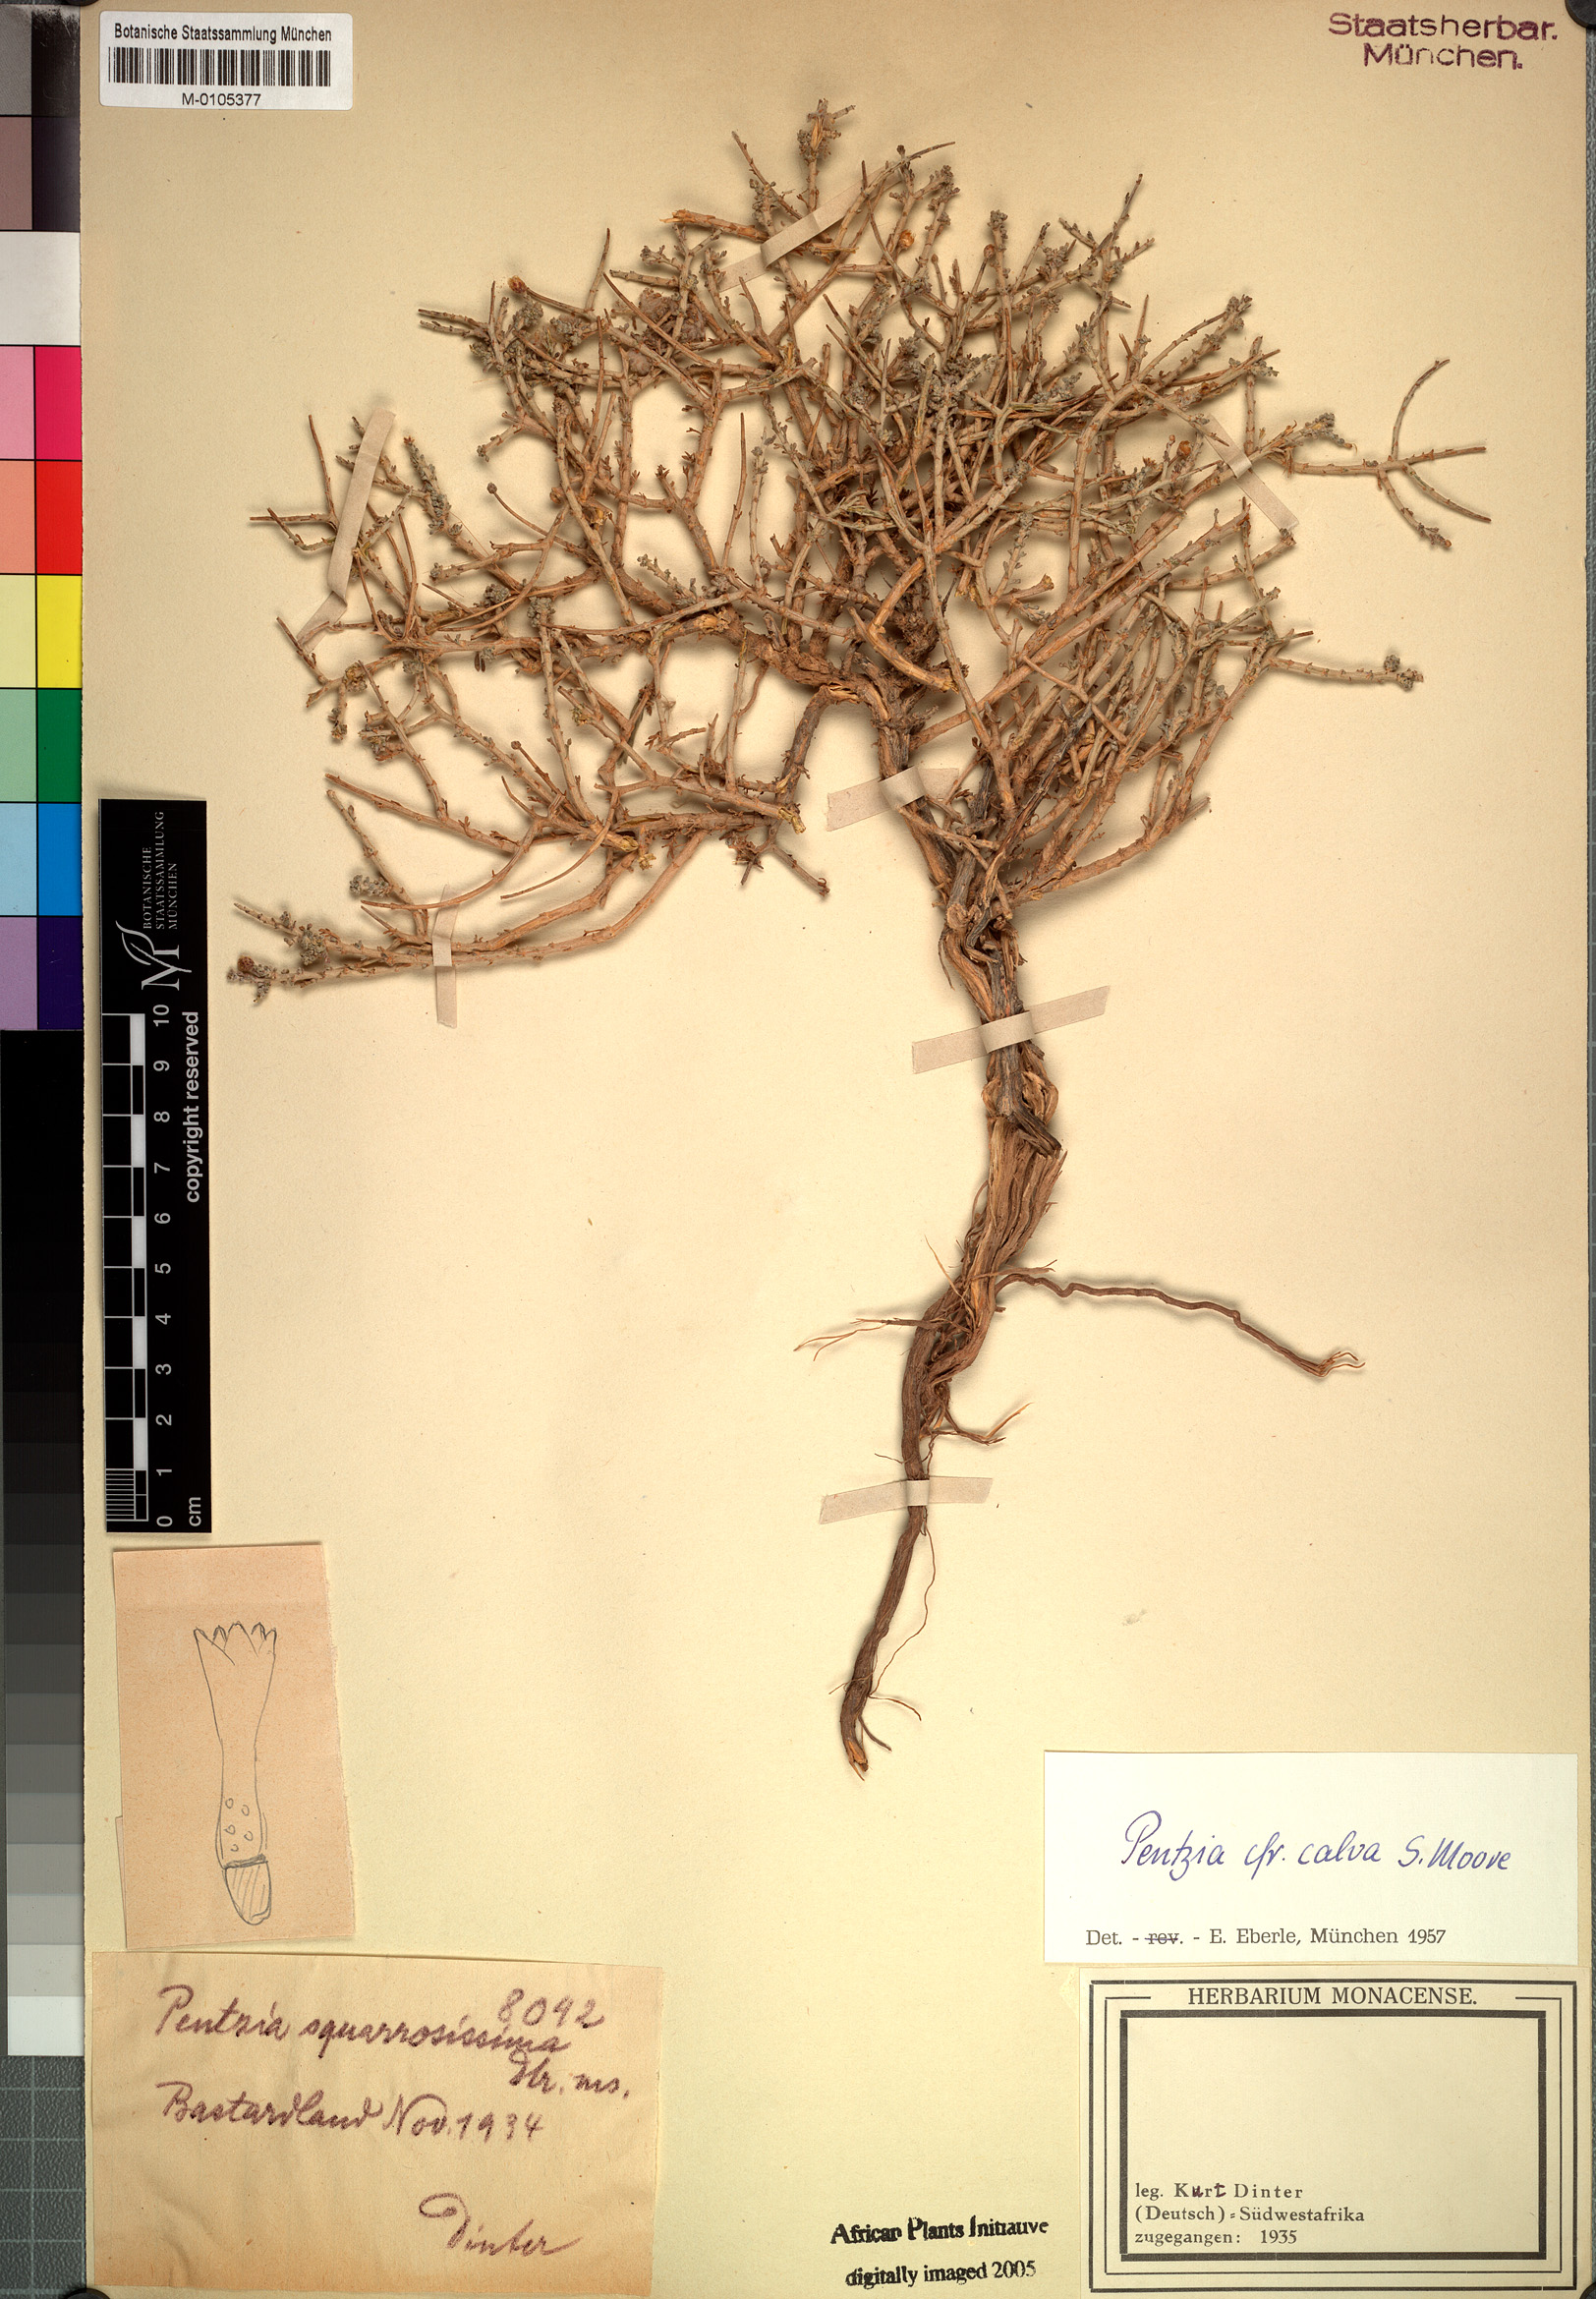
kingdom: Plantae
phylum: Tracheophyta
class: Magnoliopsida
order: Asterales
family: Asteraceae
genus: Pentzia
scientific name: Pentzia calva
